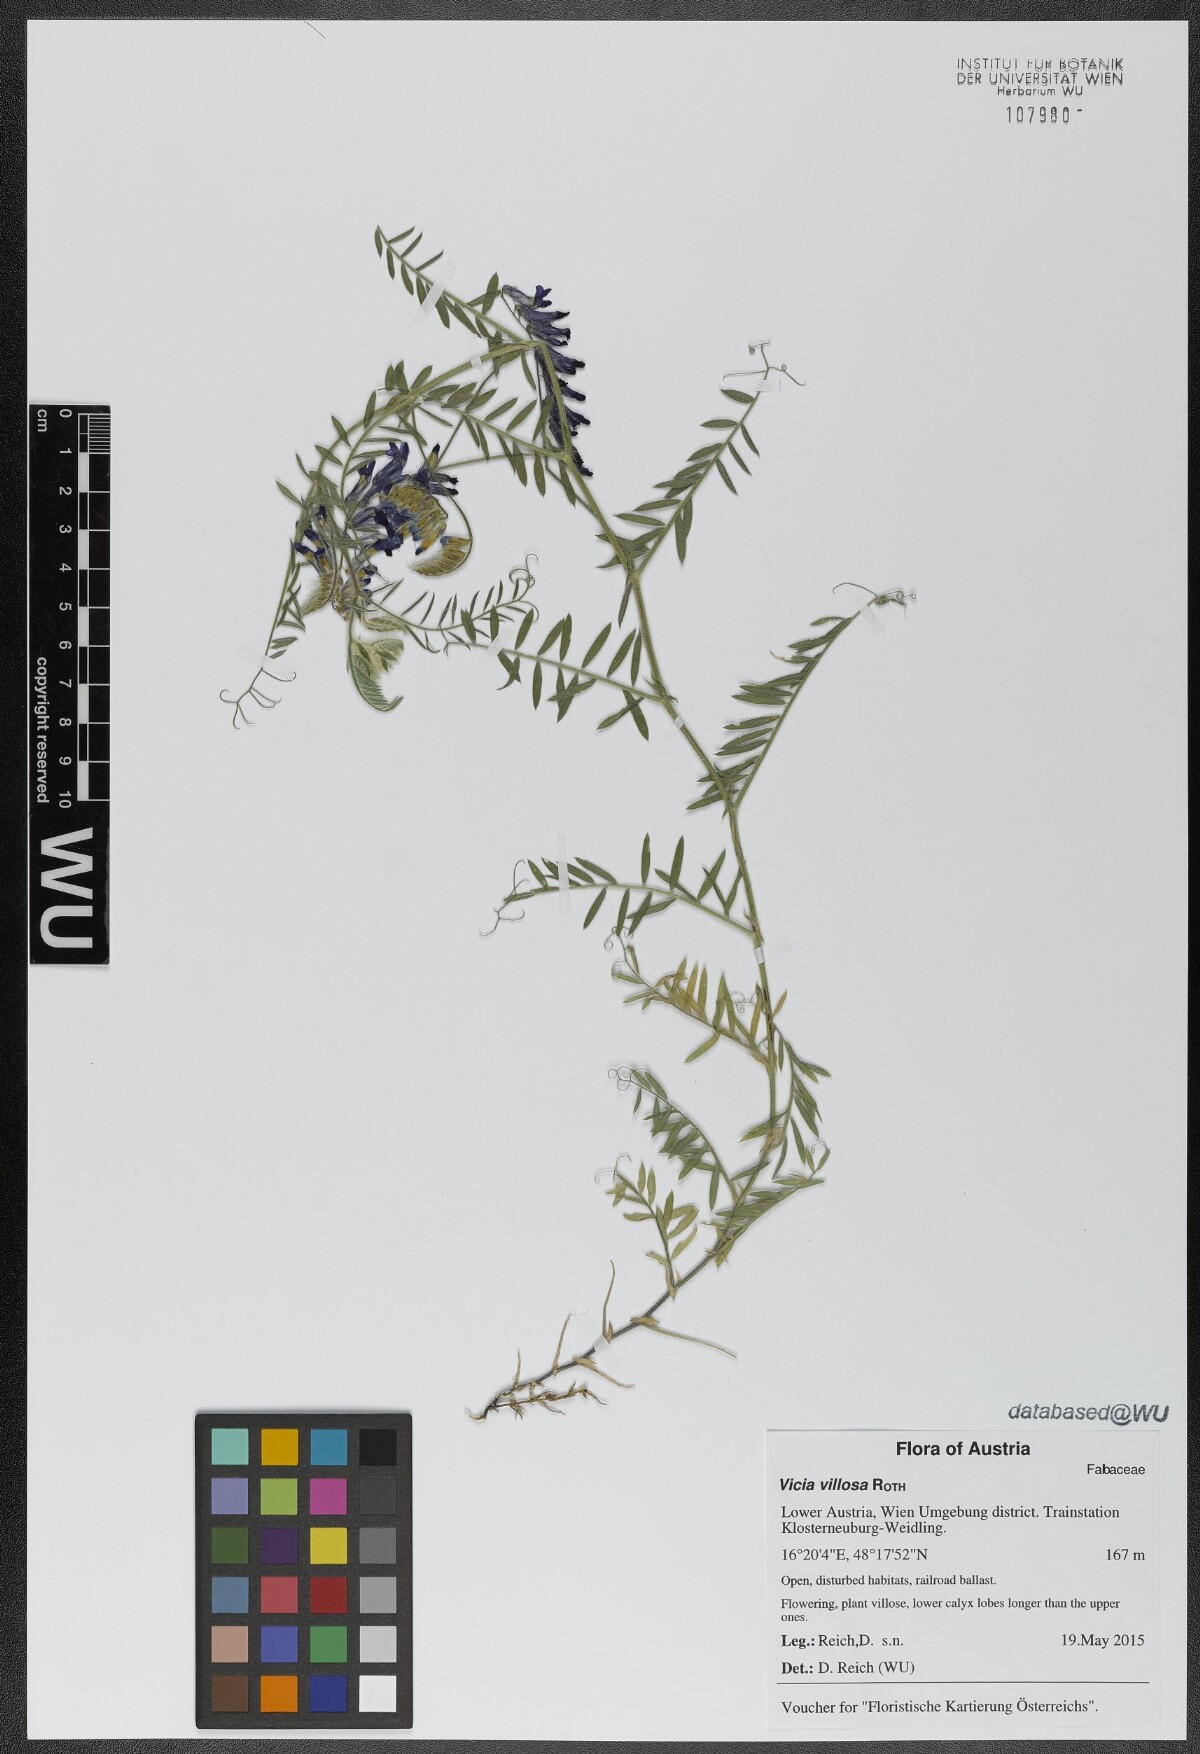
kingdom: Plantae
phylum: Tracheophyta
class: Magnoliopsida
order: Fabales
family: Fabaceae
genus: Vicia
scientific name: Vicia villosa
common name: Fodder vetch
